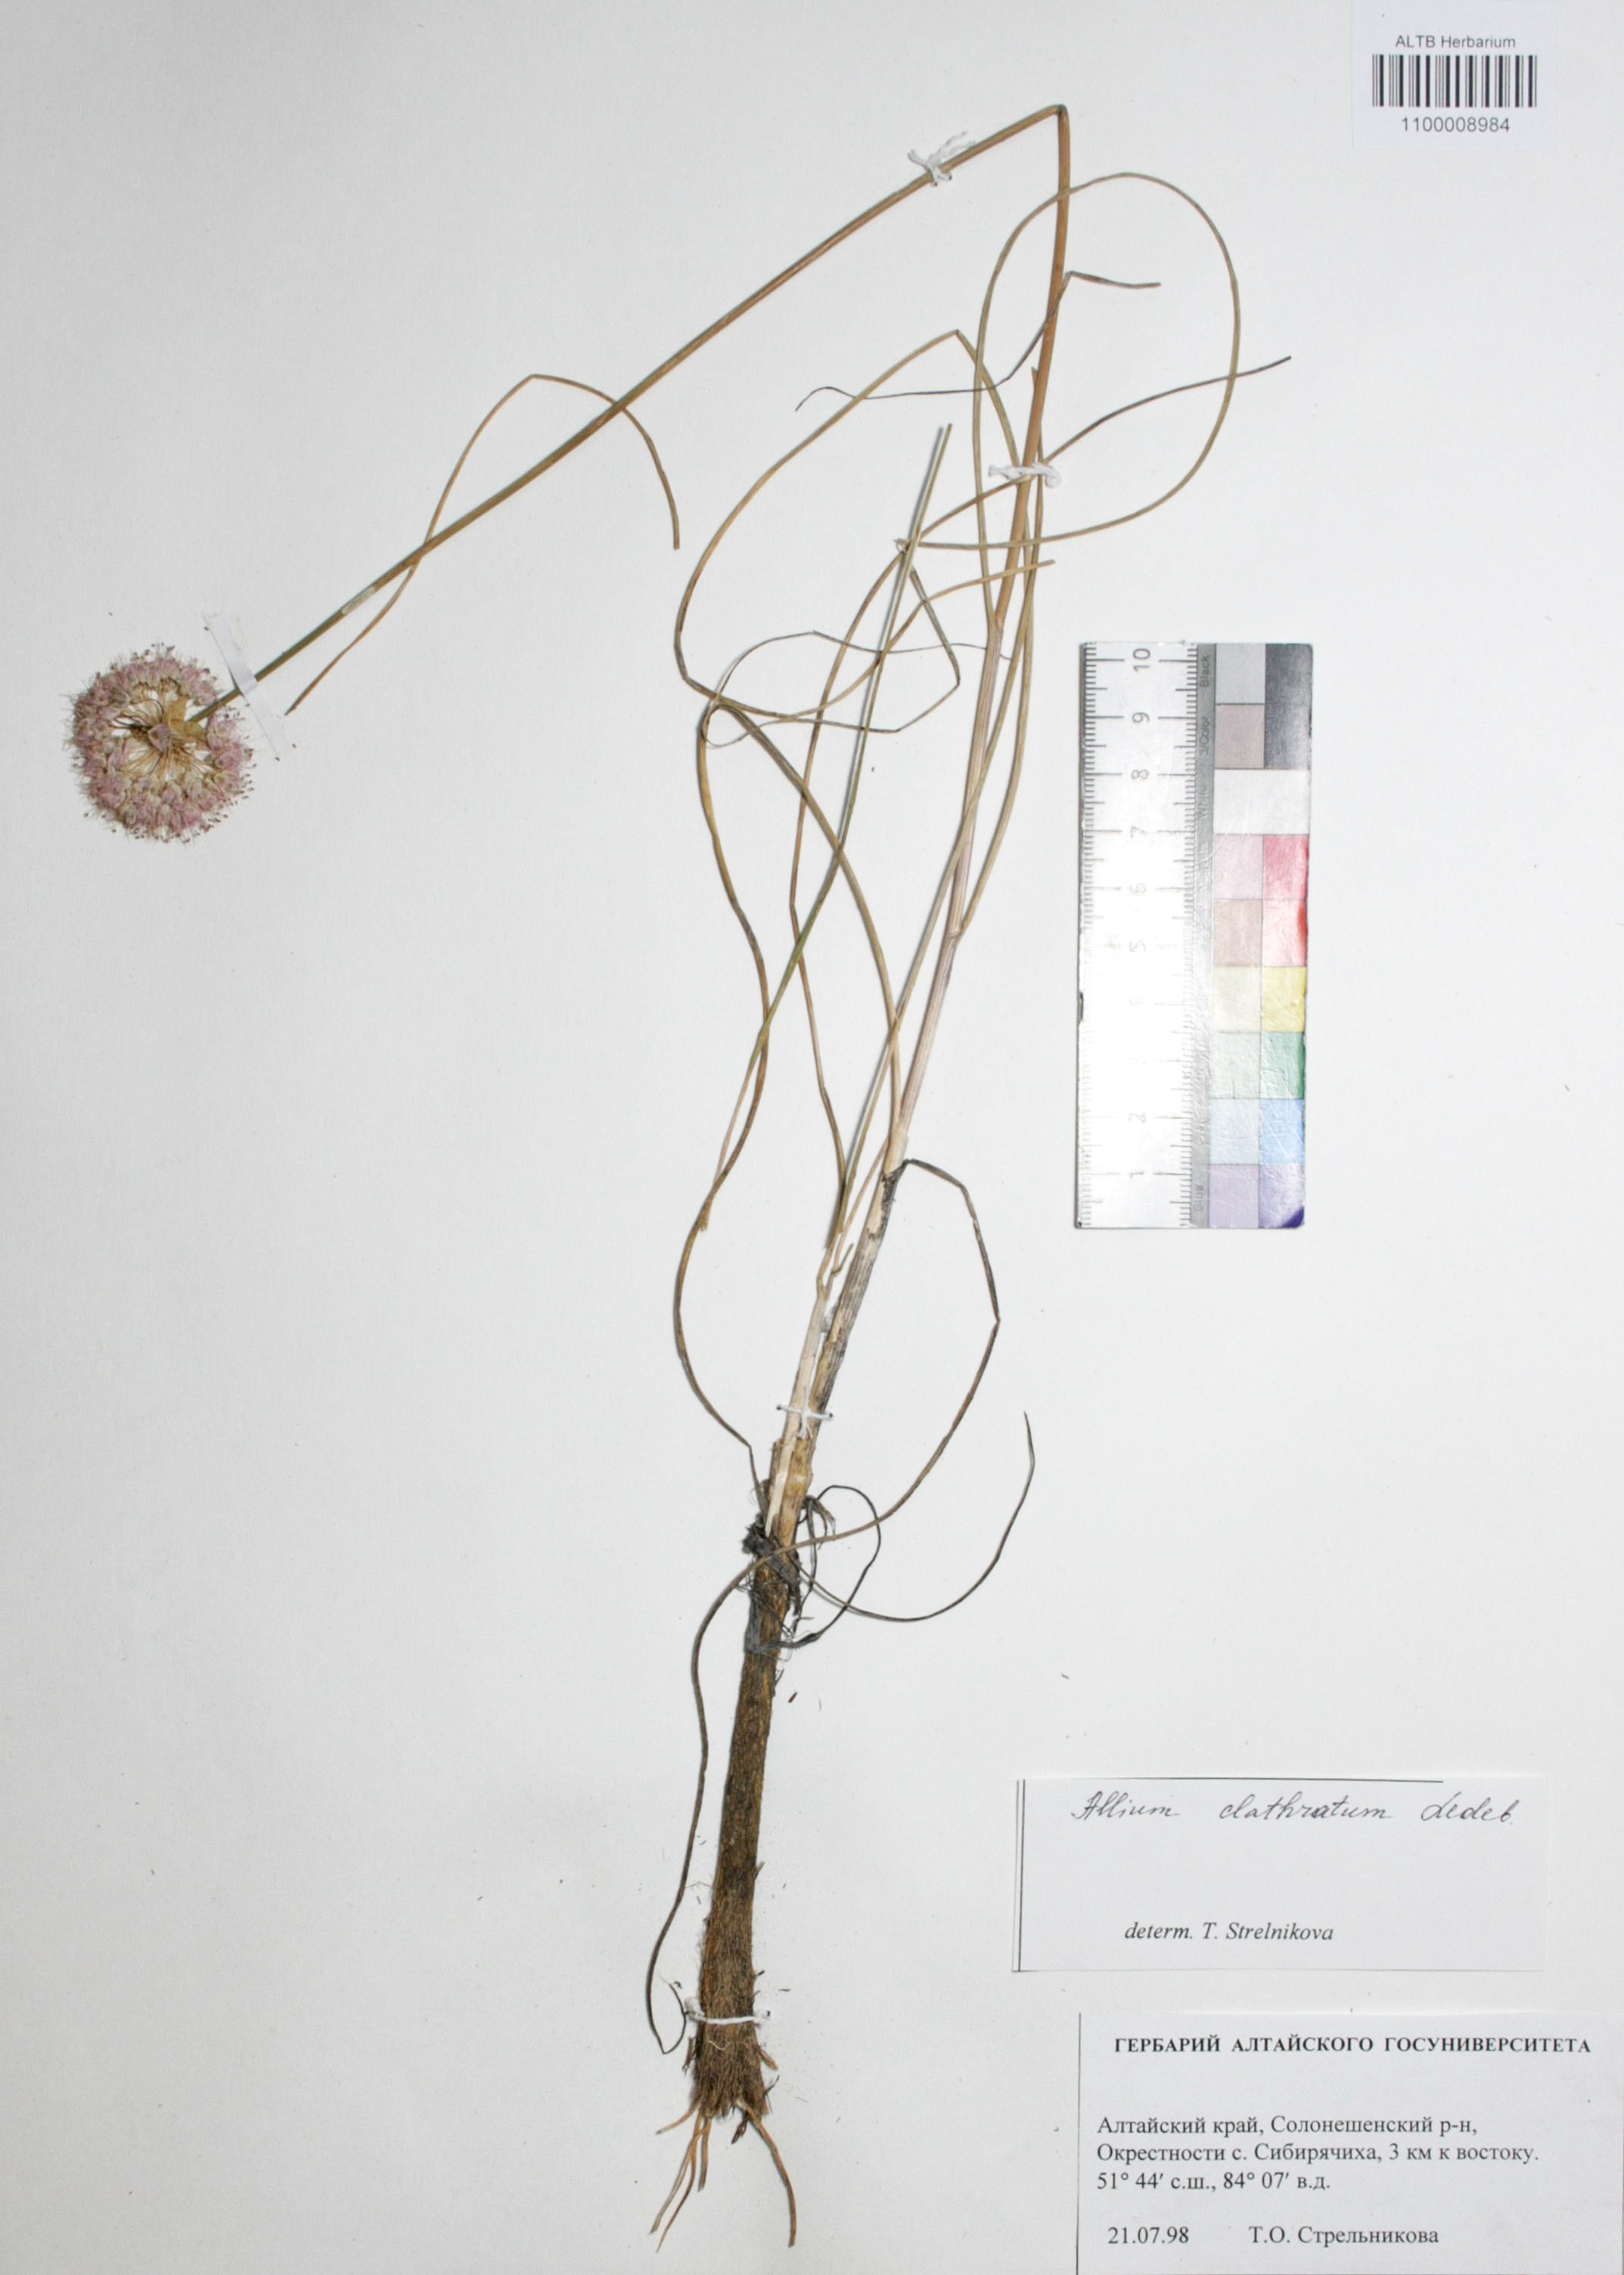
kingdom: Plantae
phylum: Tracheophyta
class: Liliopsida
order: Asparagales
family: Amaryllidaceae
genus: Allium
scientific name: Allium clathratum
